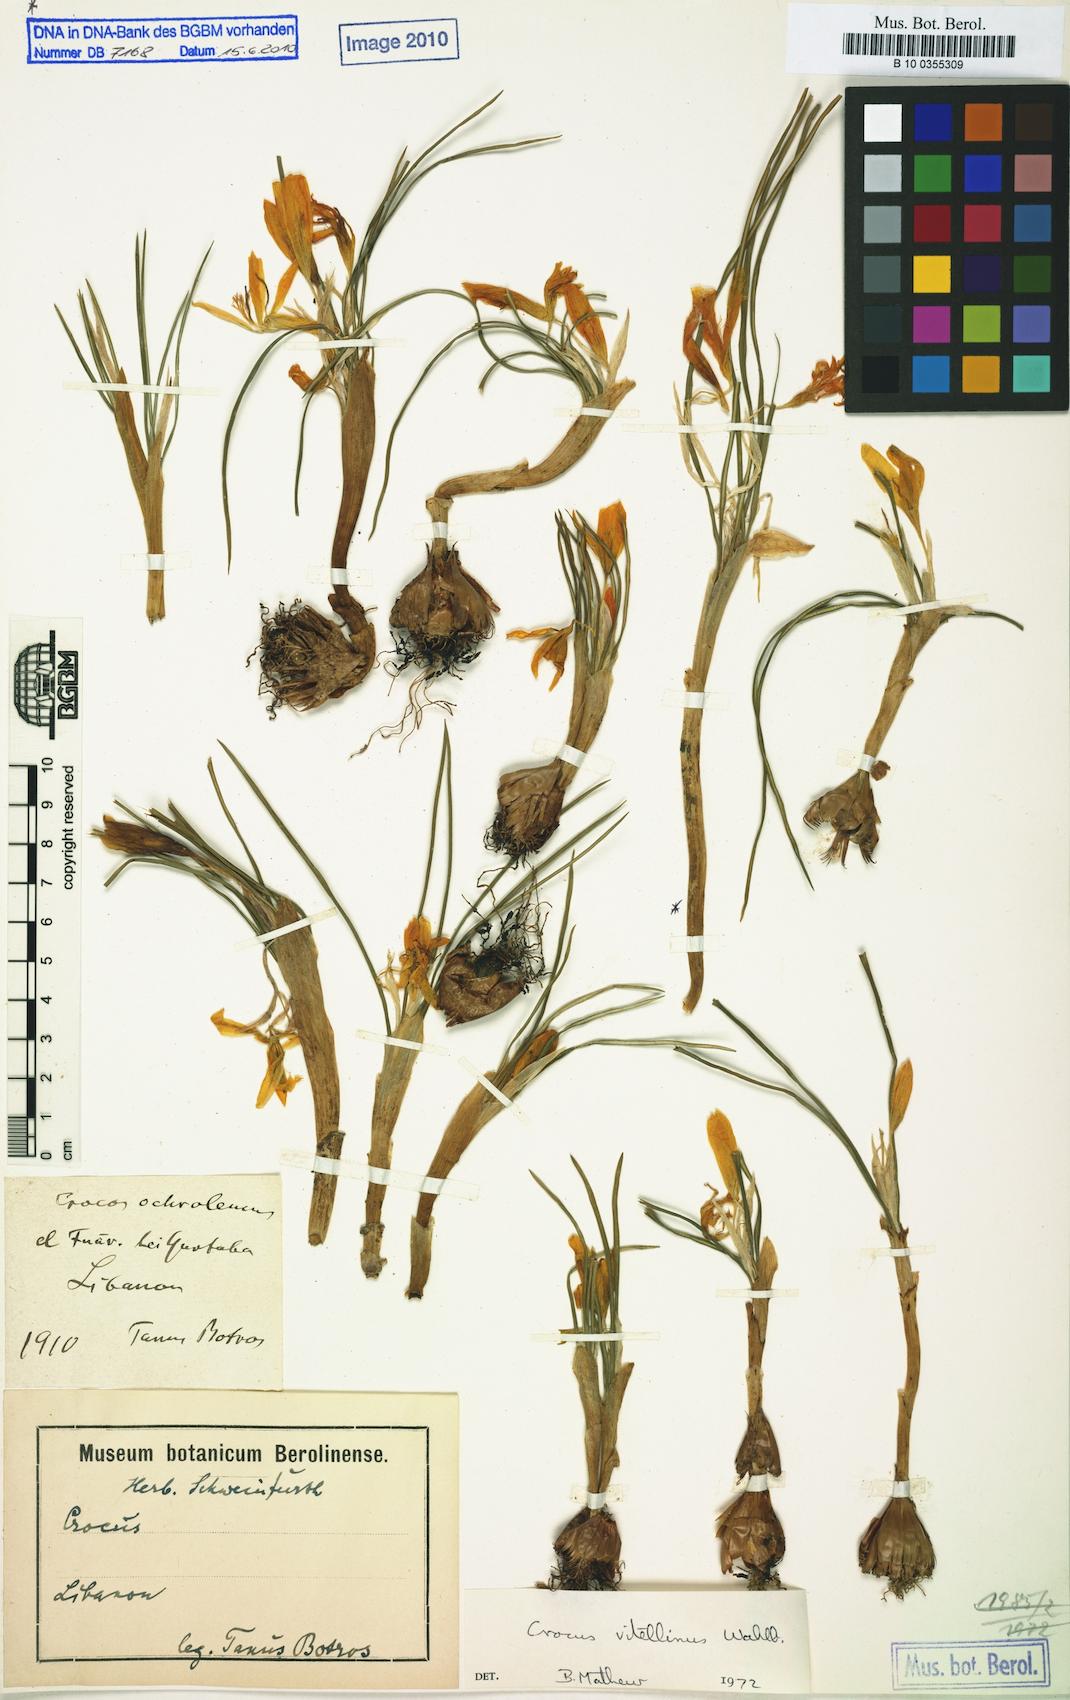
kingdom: Plantae
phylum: Tracheophyta
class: Liliopsida
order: Asparagales
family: Iridaceae
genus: Crocus
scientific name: Crocus vitellinus
